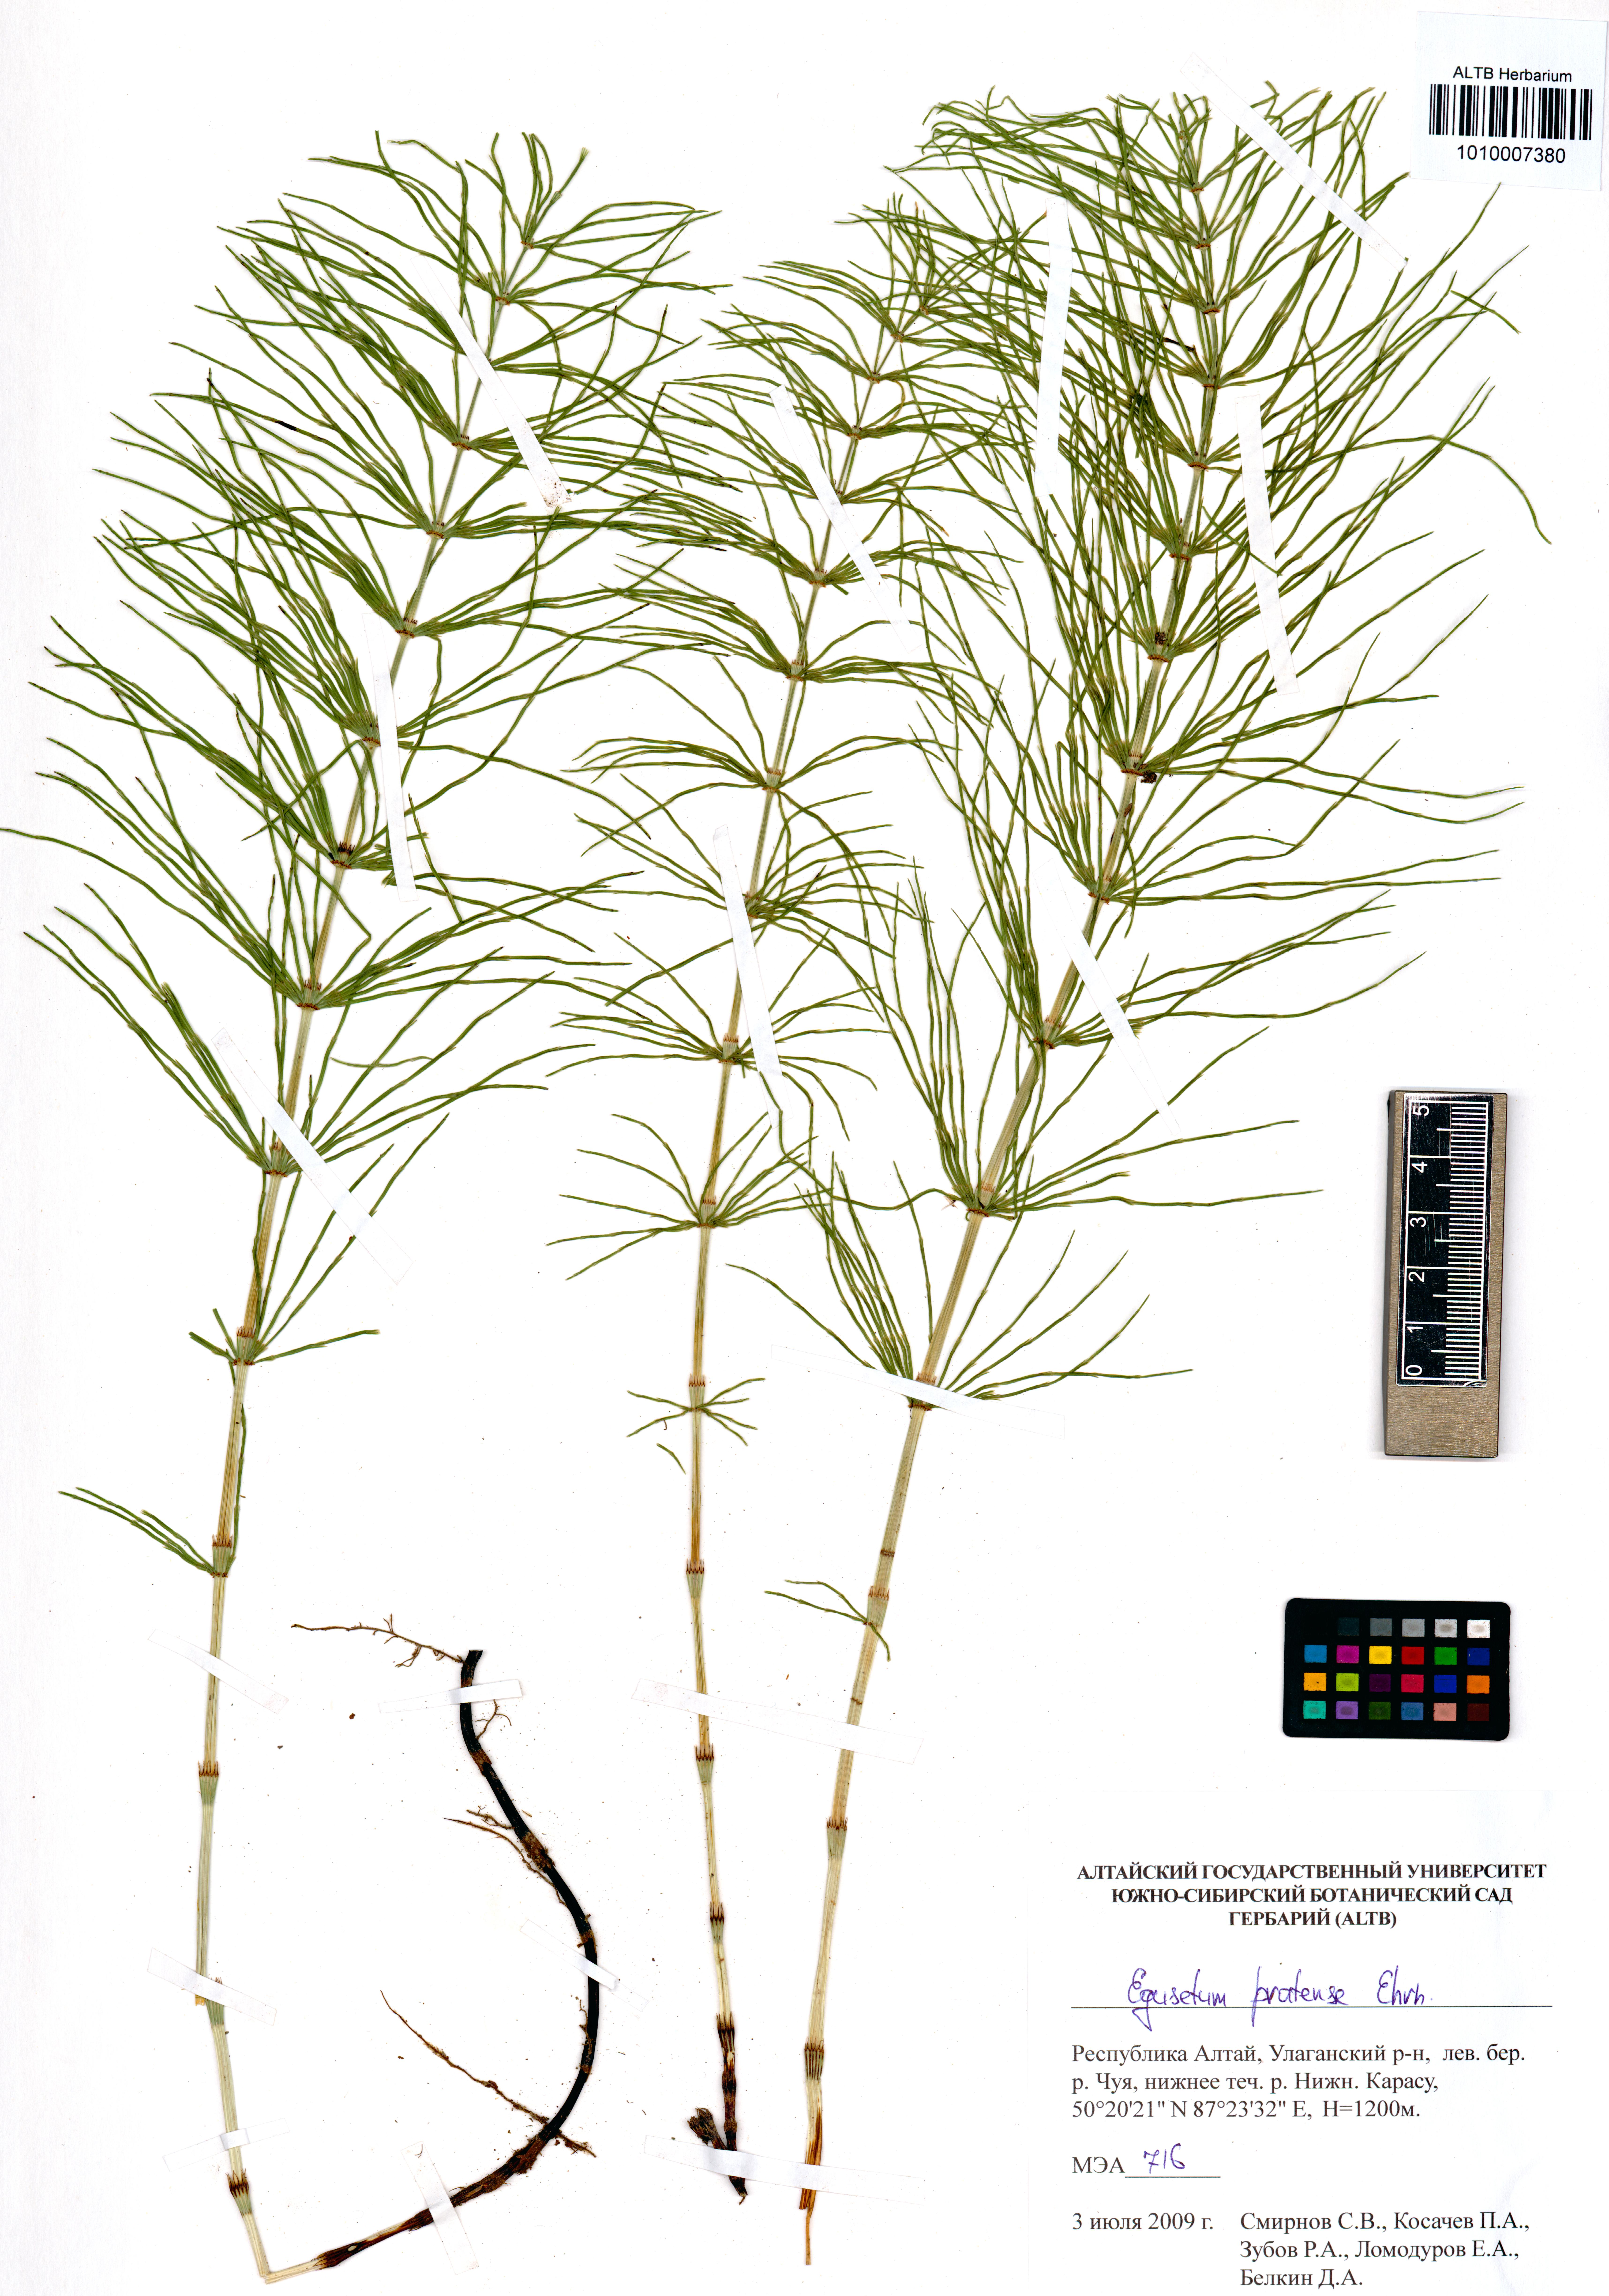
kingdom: Plantae
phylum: Tracheophyta
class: Polypodiopsida
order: Equisetales
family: Equisetaceae
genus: Equisetum
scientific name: Equisetum pratense
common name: Meadow horsetail
